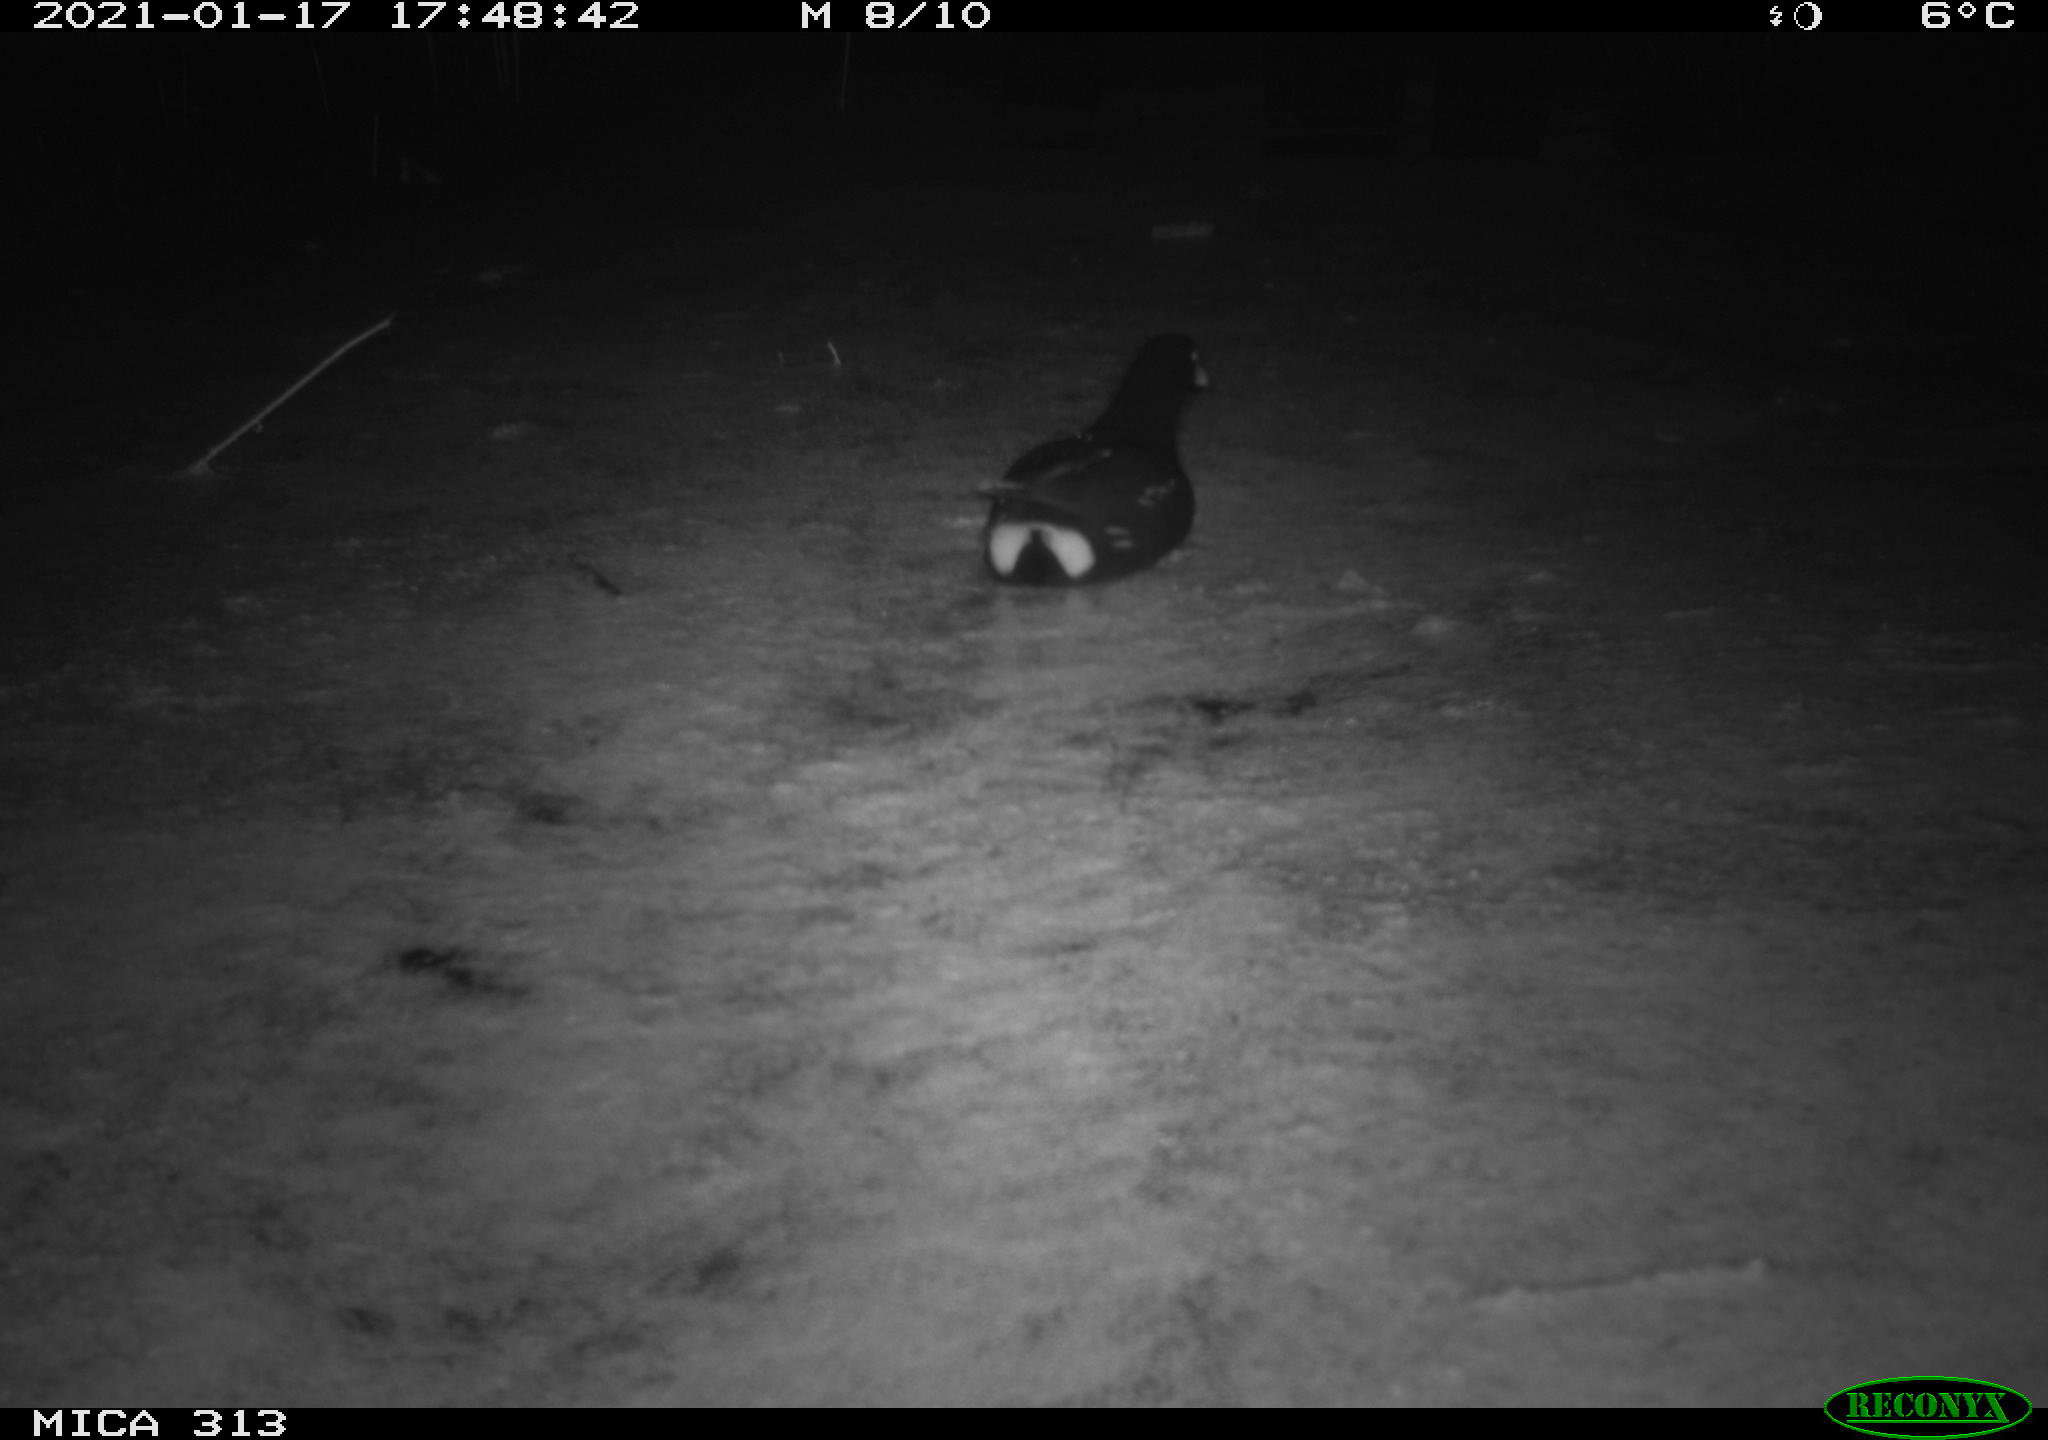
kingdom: Animalia
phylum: Chordata
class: Aves
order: Gruiformes
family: Rallidae
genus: Gallinula
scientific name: Gallinula chloropus
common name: Common moorhen
